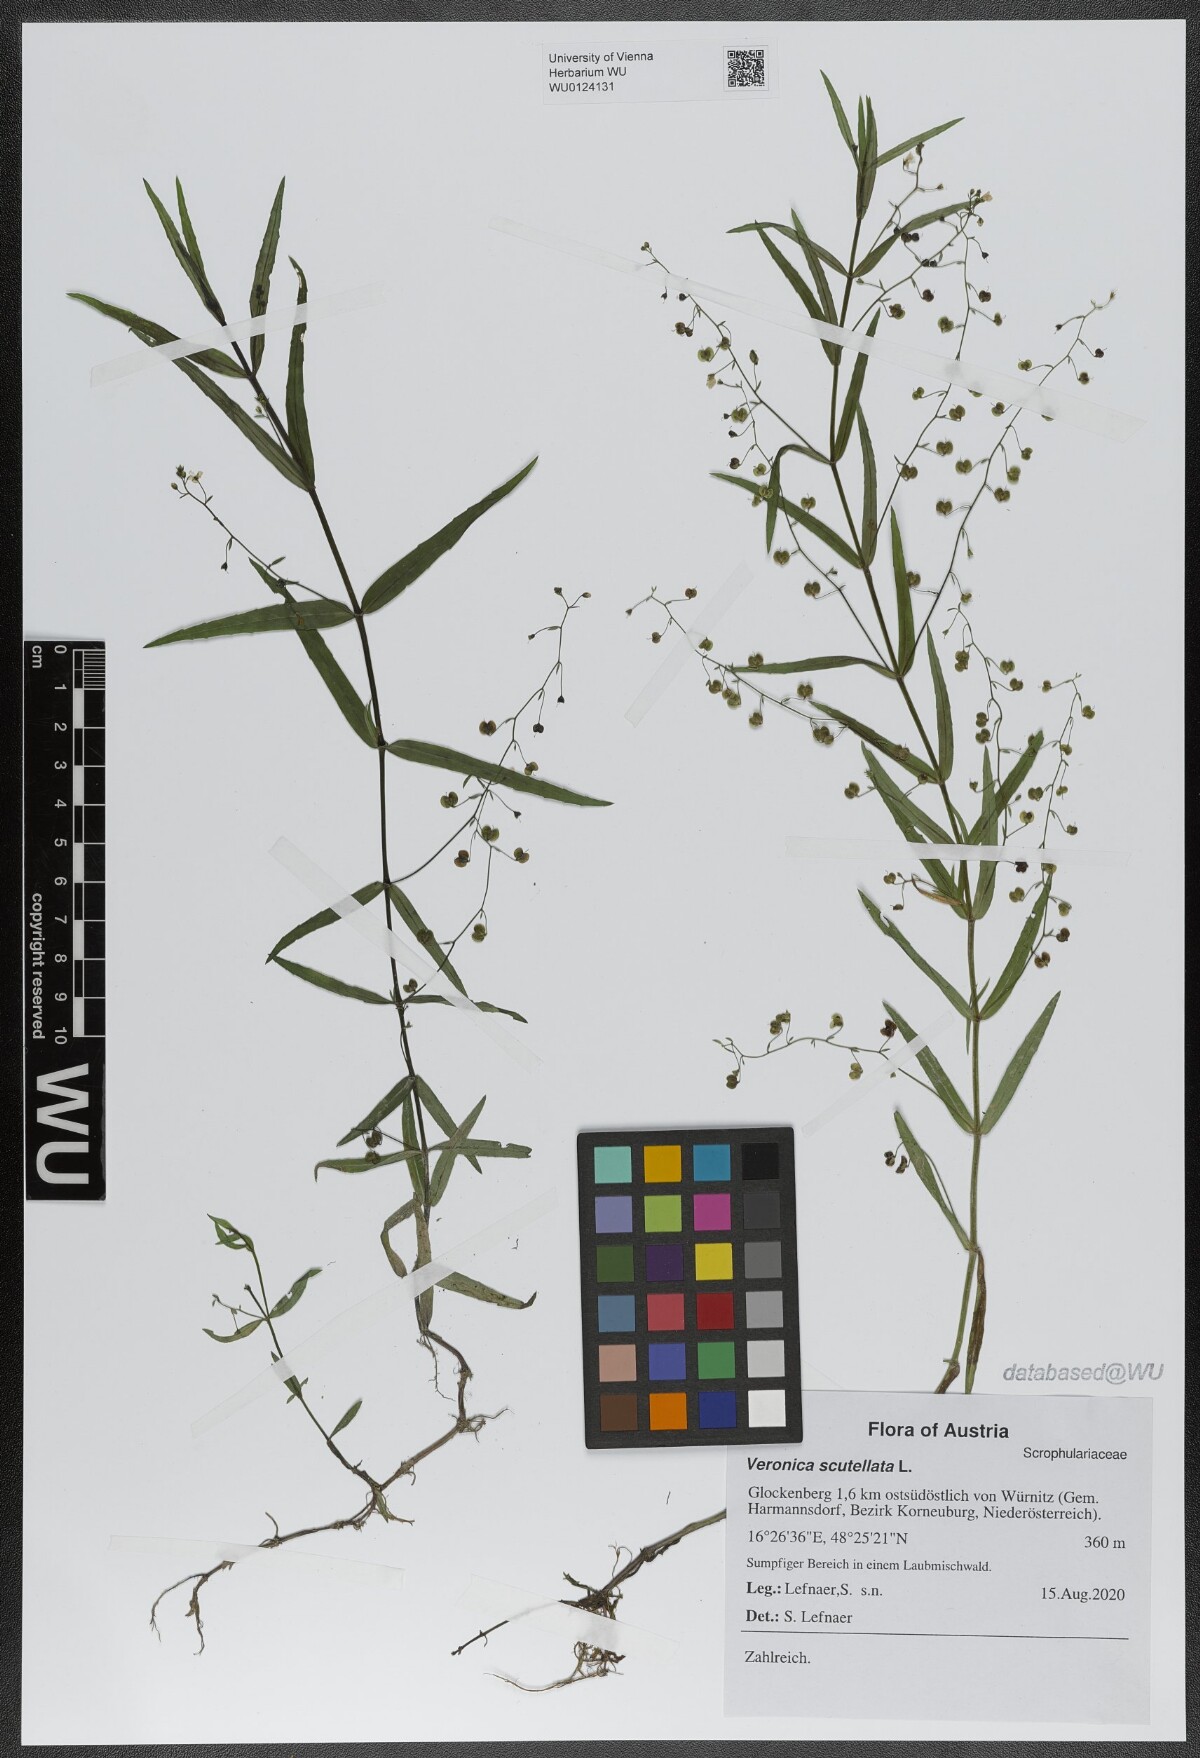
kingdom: Plantae
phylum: Tracheophyta
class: Magnoliopsida
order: Lamiales
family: Plantaginaceae
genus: Veronica
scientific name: Veronica scutellata
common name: Marsh speedwell
